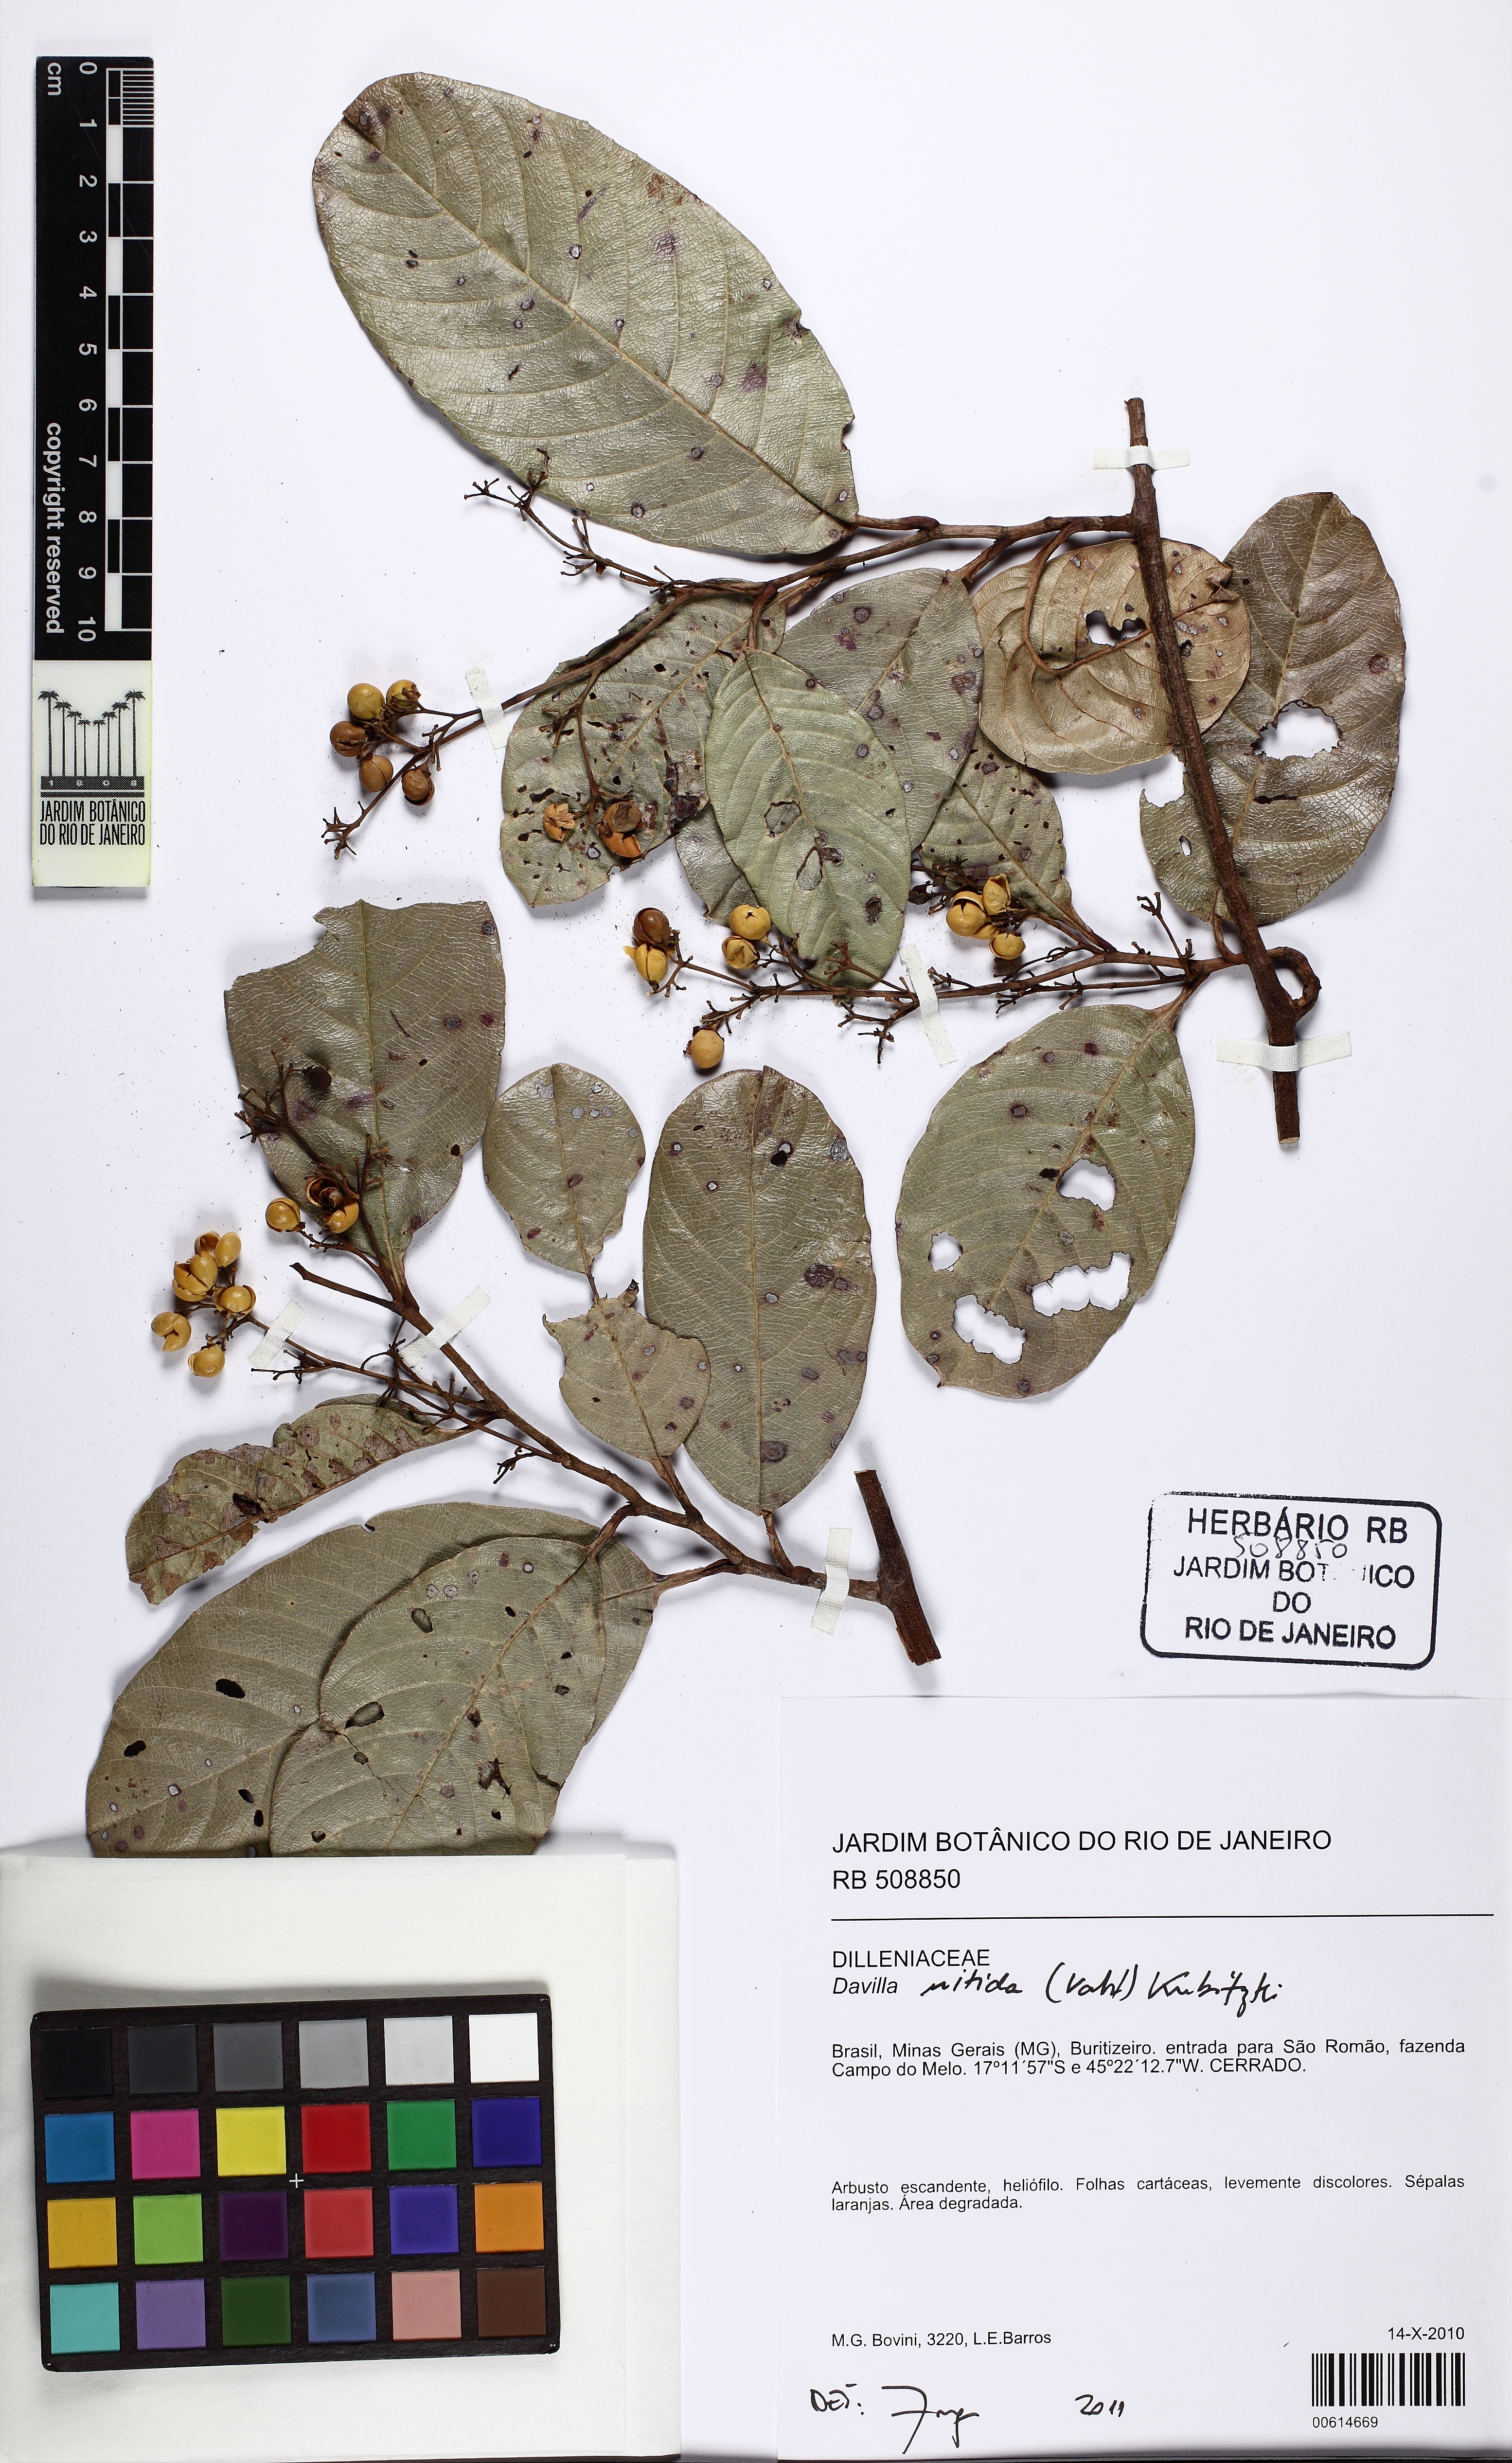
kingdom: Plantae
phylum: Tracheophyta
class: Magnoliopsida
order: Dilleniales
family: Dilleniaceae
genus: Davilla
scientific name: Davilla nitida
